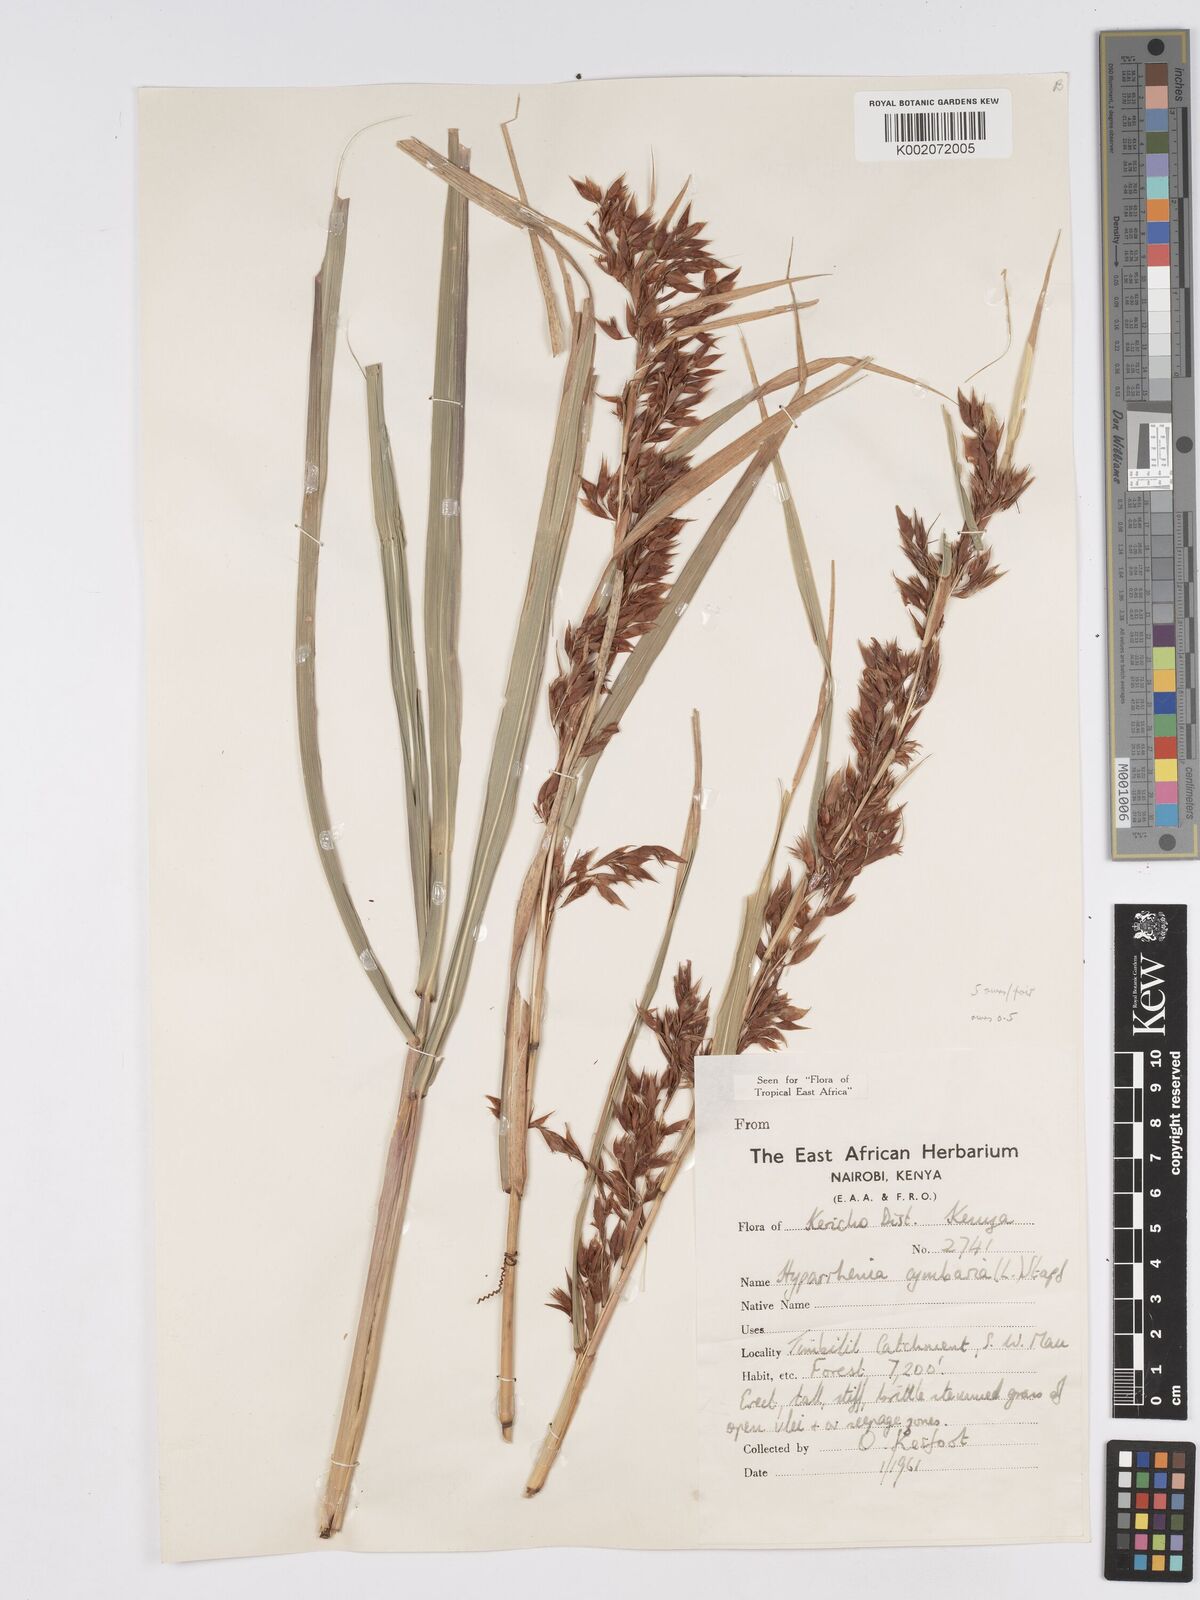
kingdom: Plantae
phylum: Tracheophyta
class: Liliopsida
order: Poales
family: Poaceae
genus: Hyparrhenia
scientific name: Hyparrhenia cymbaria
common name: Boat thatching grass
